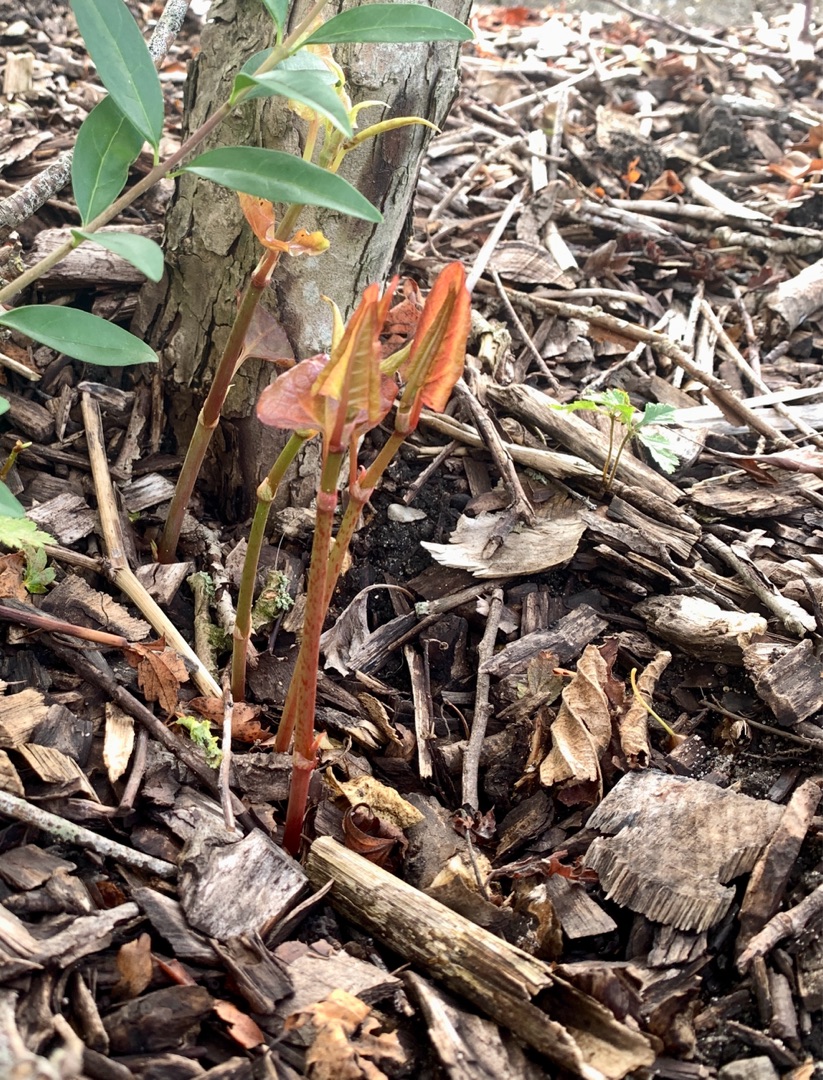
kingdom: Plantae
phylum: Tracheophyta
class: Magnoliopsida
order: Caryophyllales
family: Polygonaceae
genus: Reynoutria
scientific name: Reynoutria
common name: Pileurt (Reynoutria-slægten)
